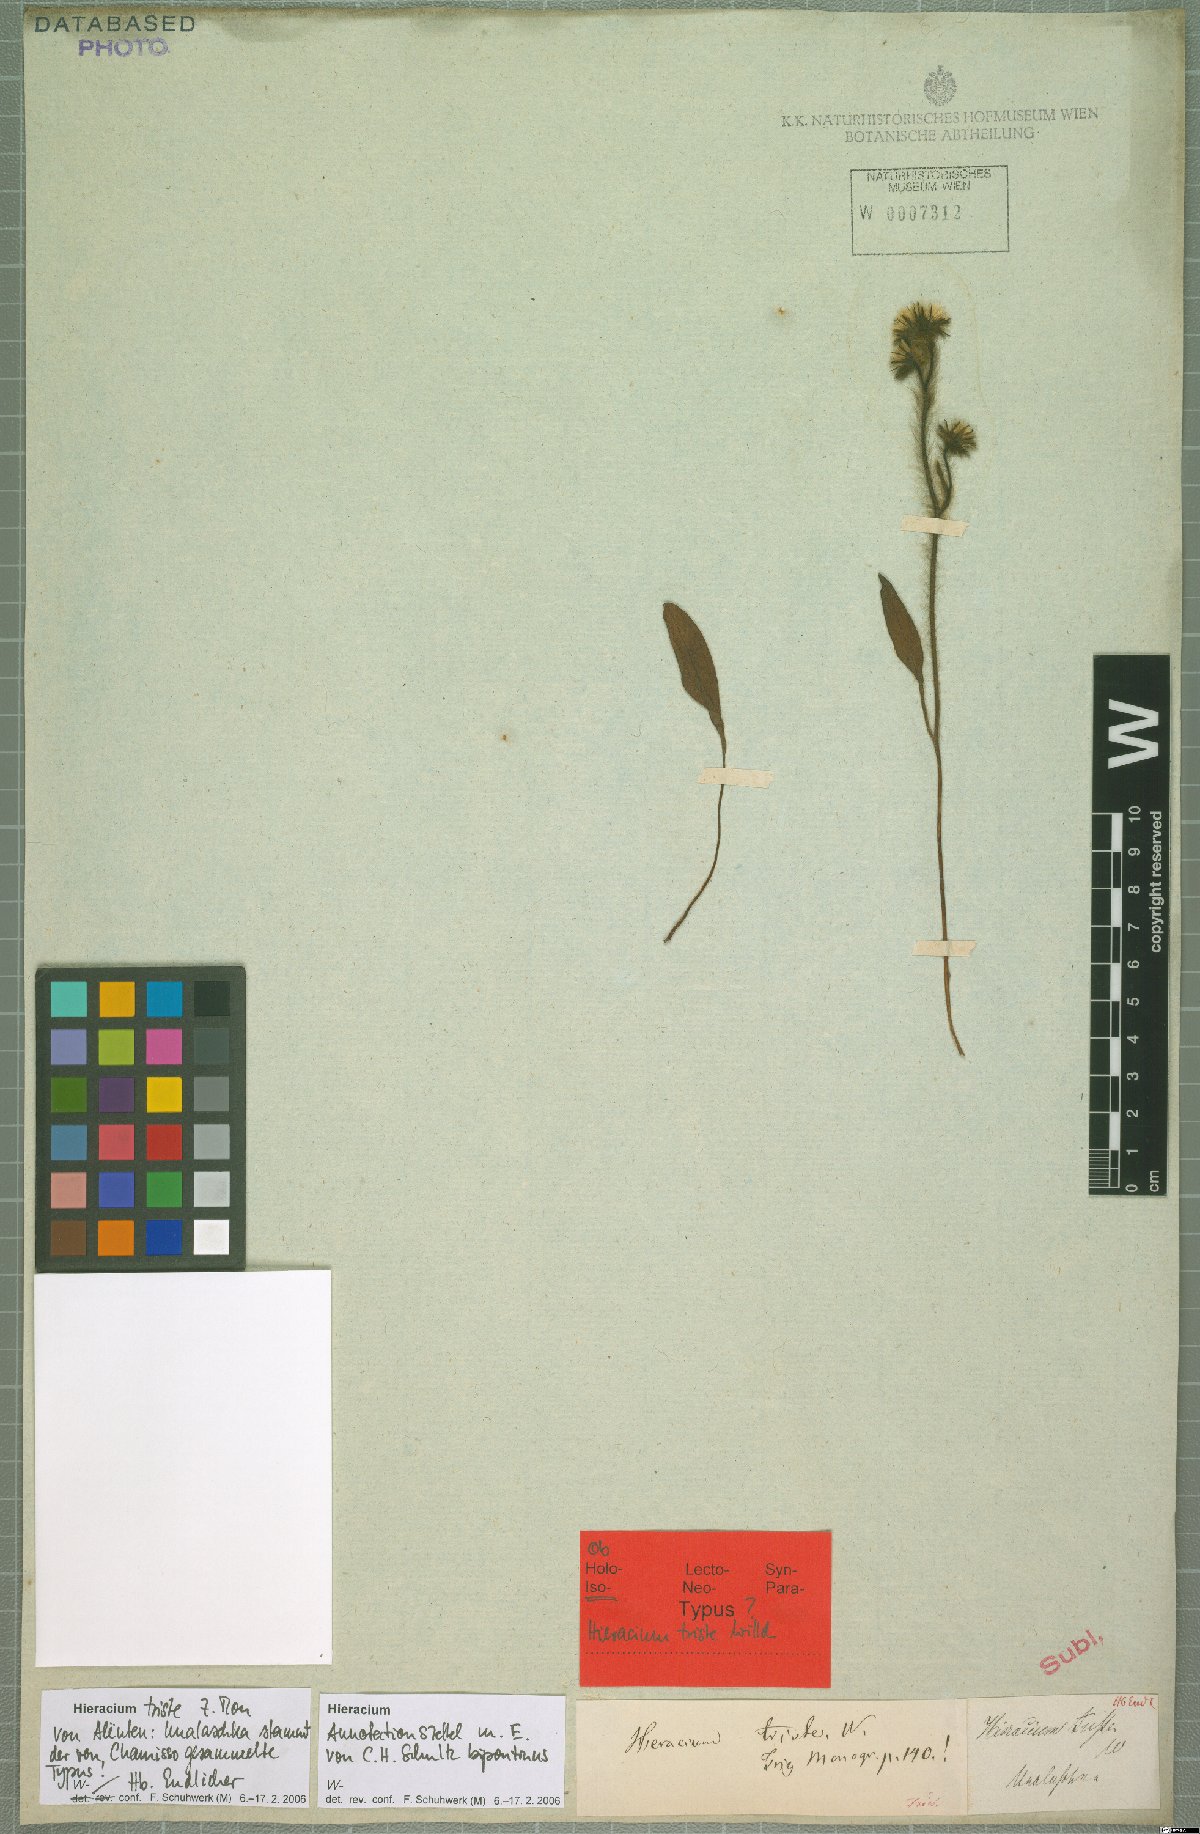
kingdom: Plantae
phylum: Tracheophyta
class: Magnoliopsida
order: Asterales
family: Asteraceae
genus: Hieracium
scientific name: Hieracium triste
